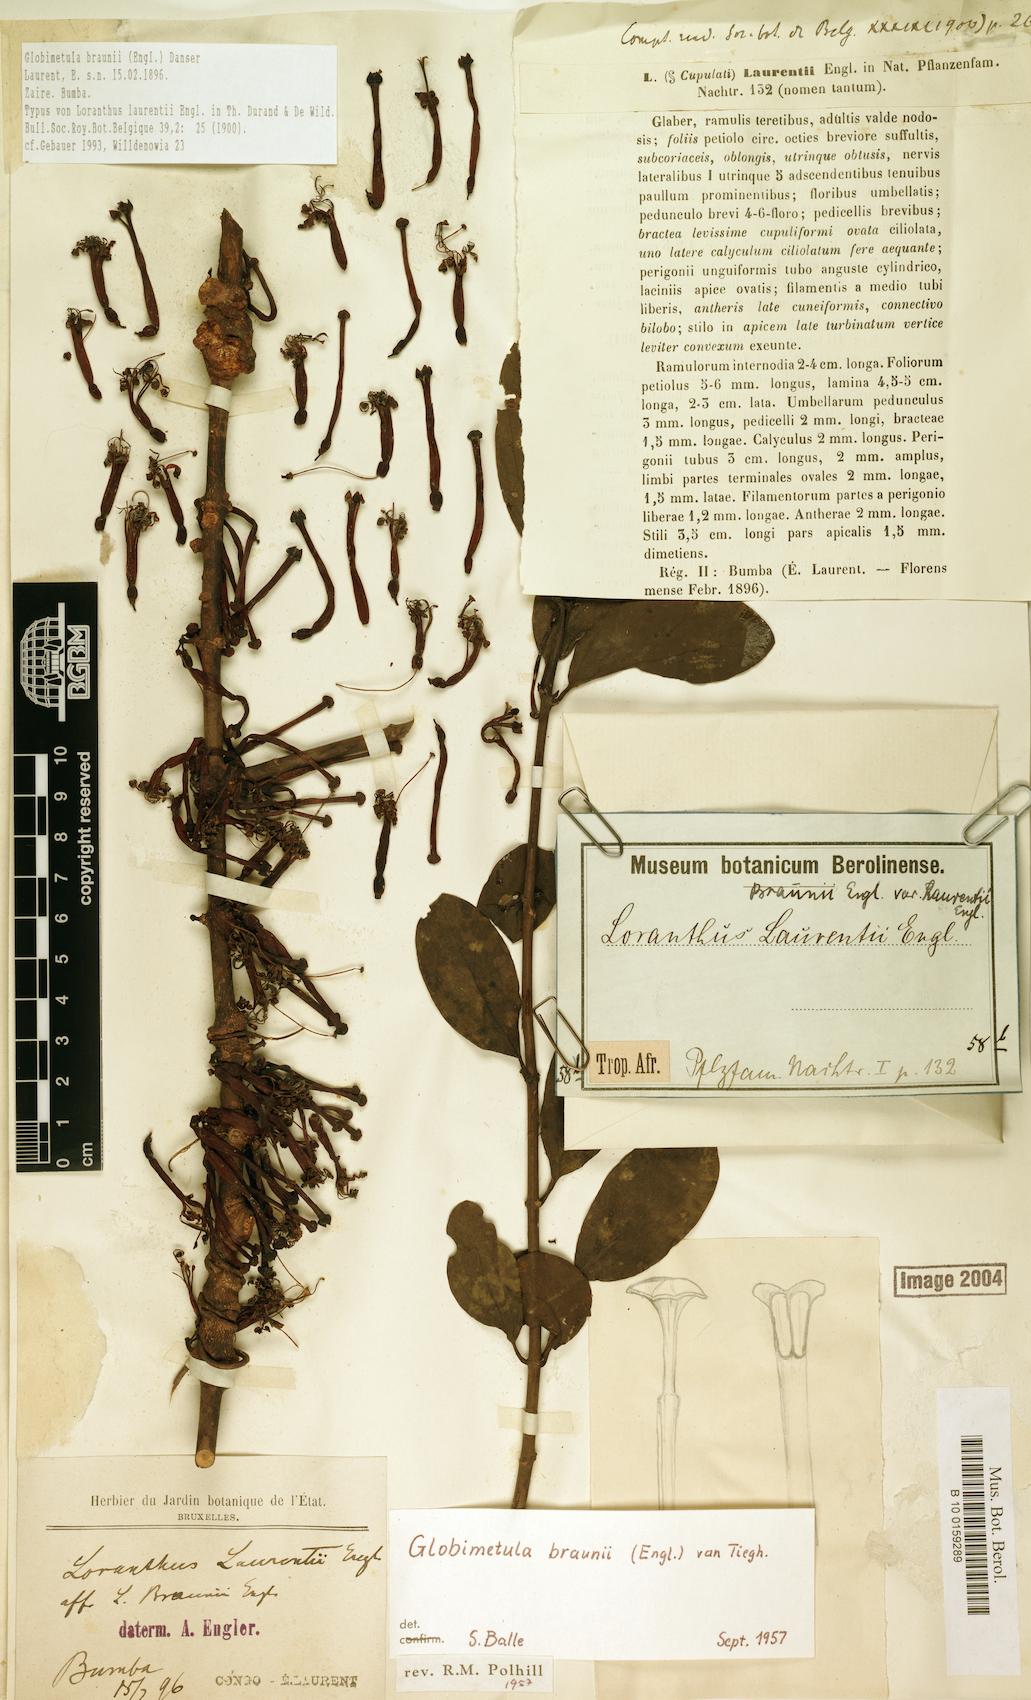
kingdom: Plantae
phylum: Tracheophyta
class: Magnoliopsida
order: Santalales
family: Loranthaceae
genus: Globimetula
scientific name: Globimetula braunii
